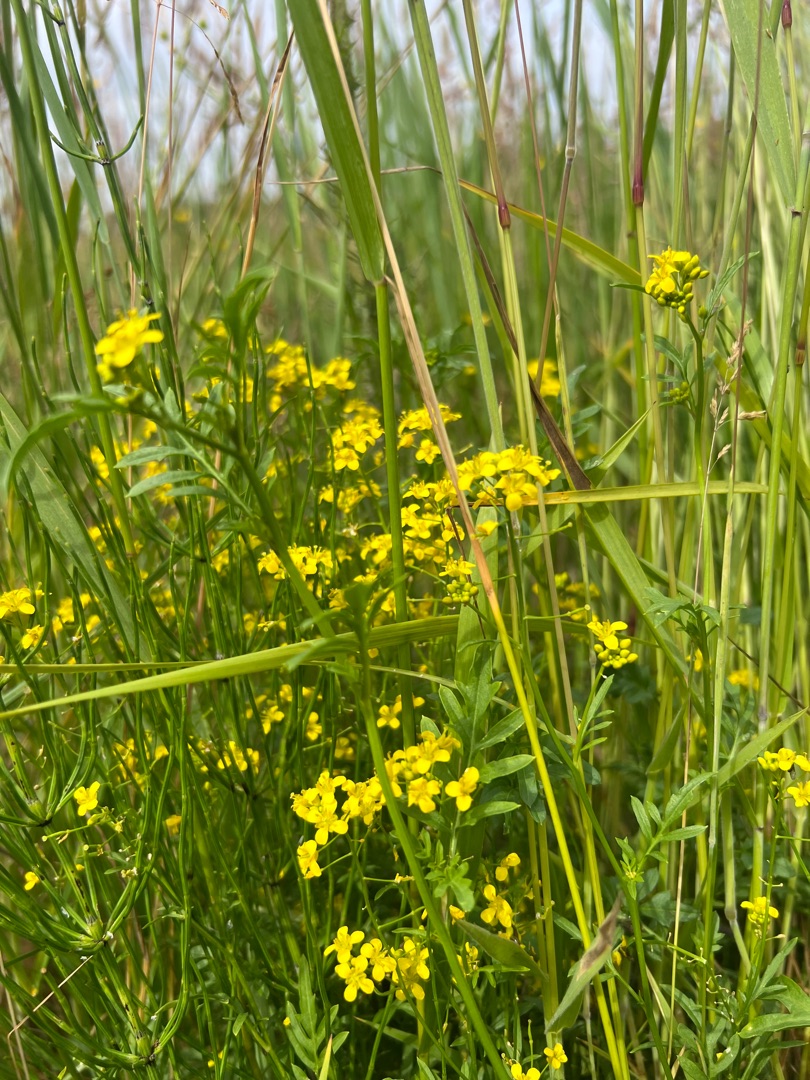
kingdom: Plantae
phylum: Tracheophyta
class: Magnoliopsida
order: Brassicales
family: Brassicaceae
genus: Rorippa
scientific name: Rorippa sylvestris
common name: Vej-guldkarse
